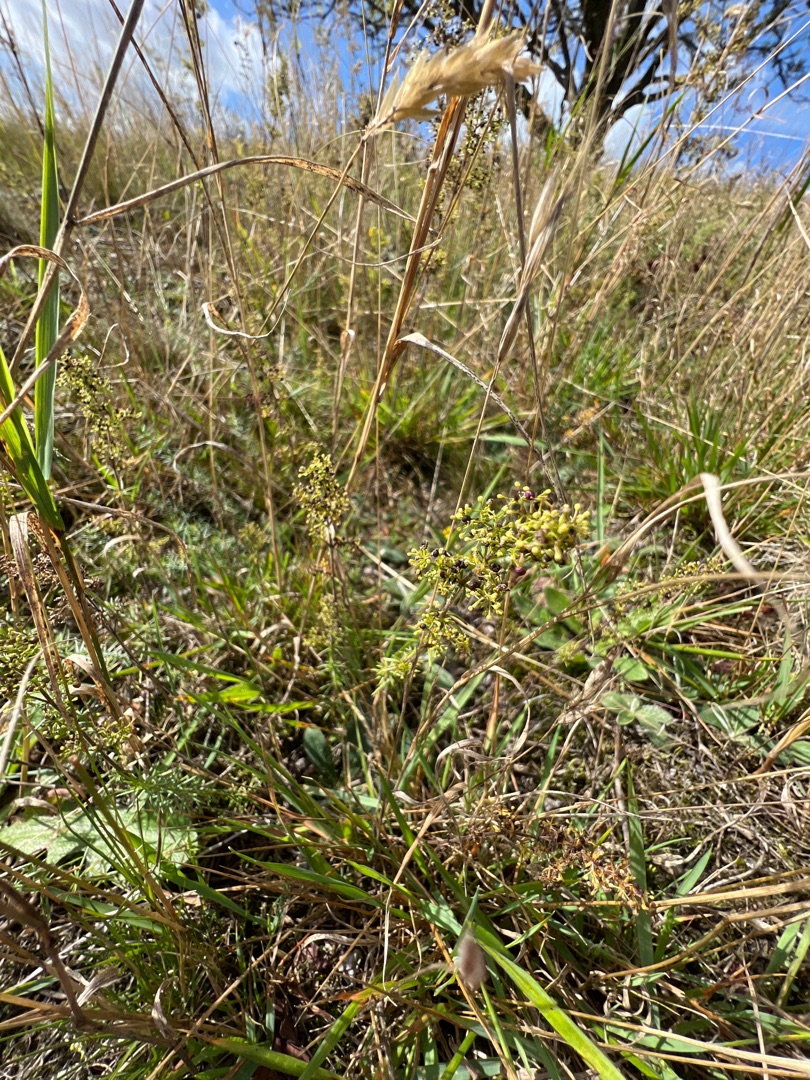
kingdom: Plantae
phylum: Tracheophyta
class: Magnoliopsida
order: Gentianales
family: Rubiaceae
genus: Galium
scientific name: Galium verum
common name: Gul snerre
